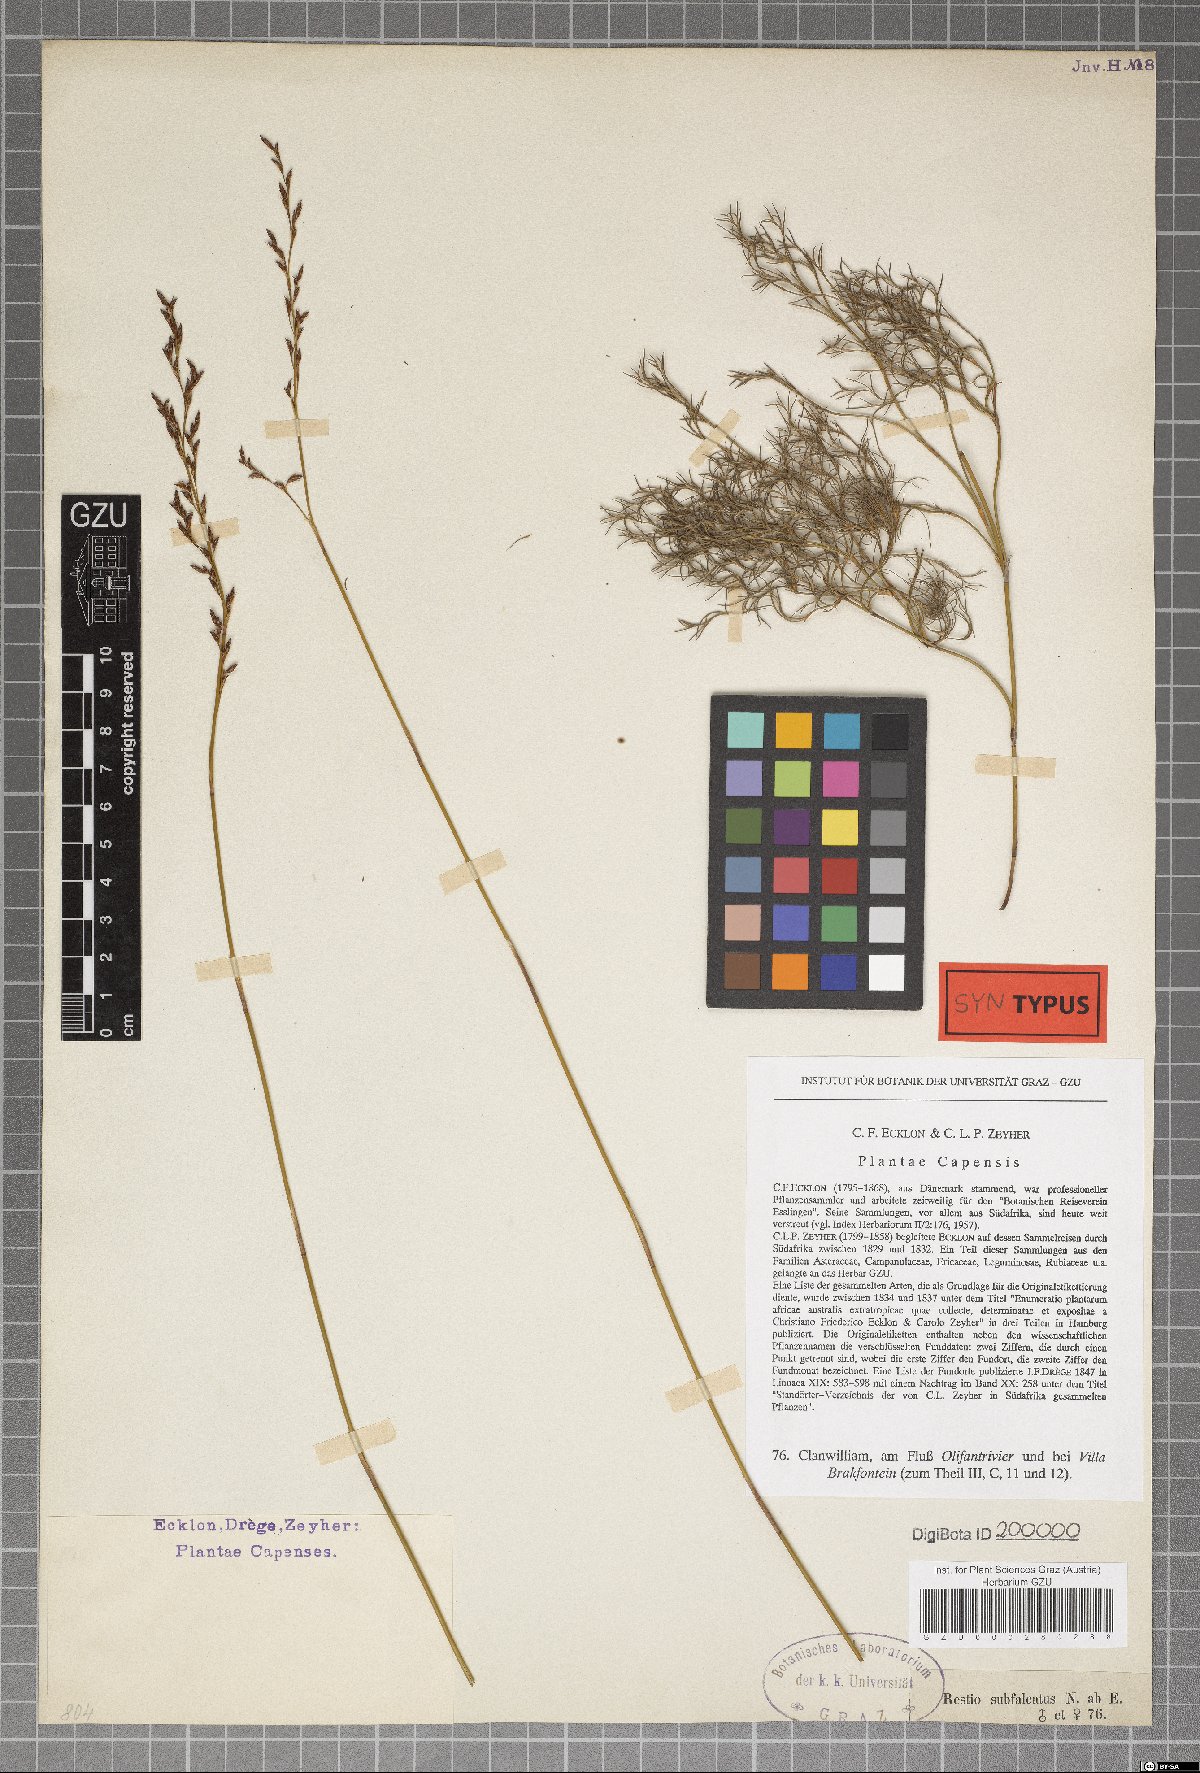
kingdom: Plantae
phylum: Tracheophyta
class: Liliopsida
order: Poales
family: Restionaceae
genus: Restio
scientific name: Restio sieberi
